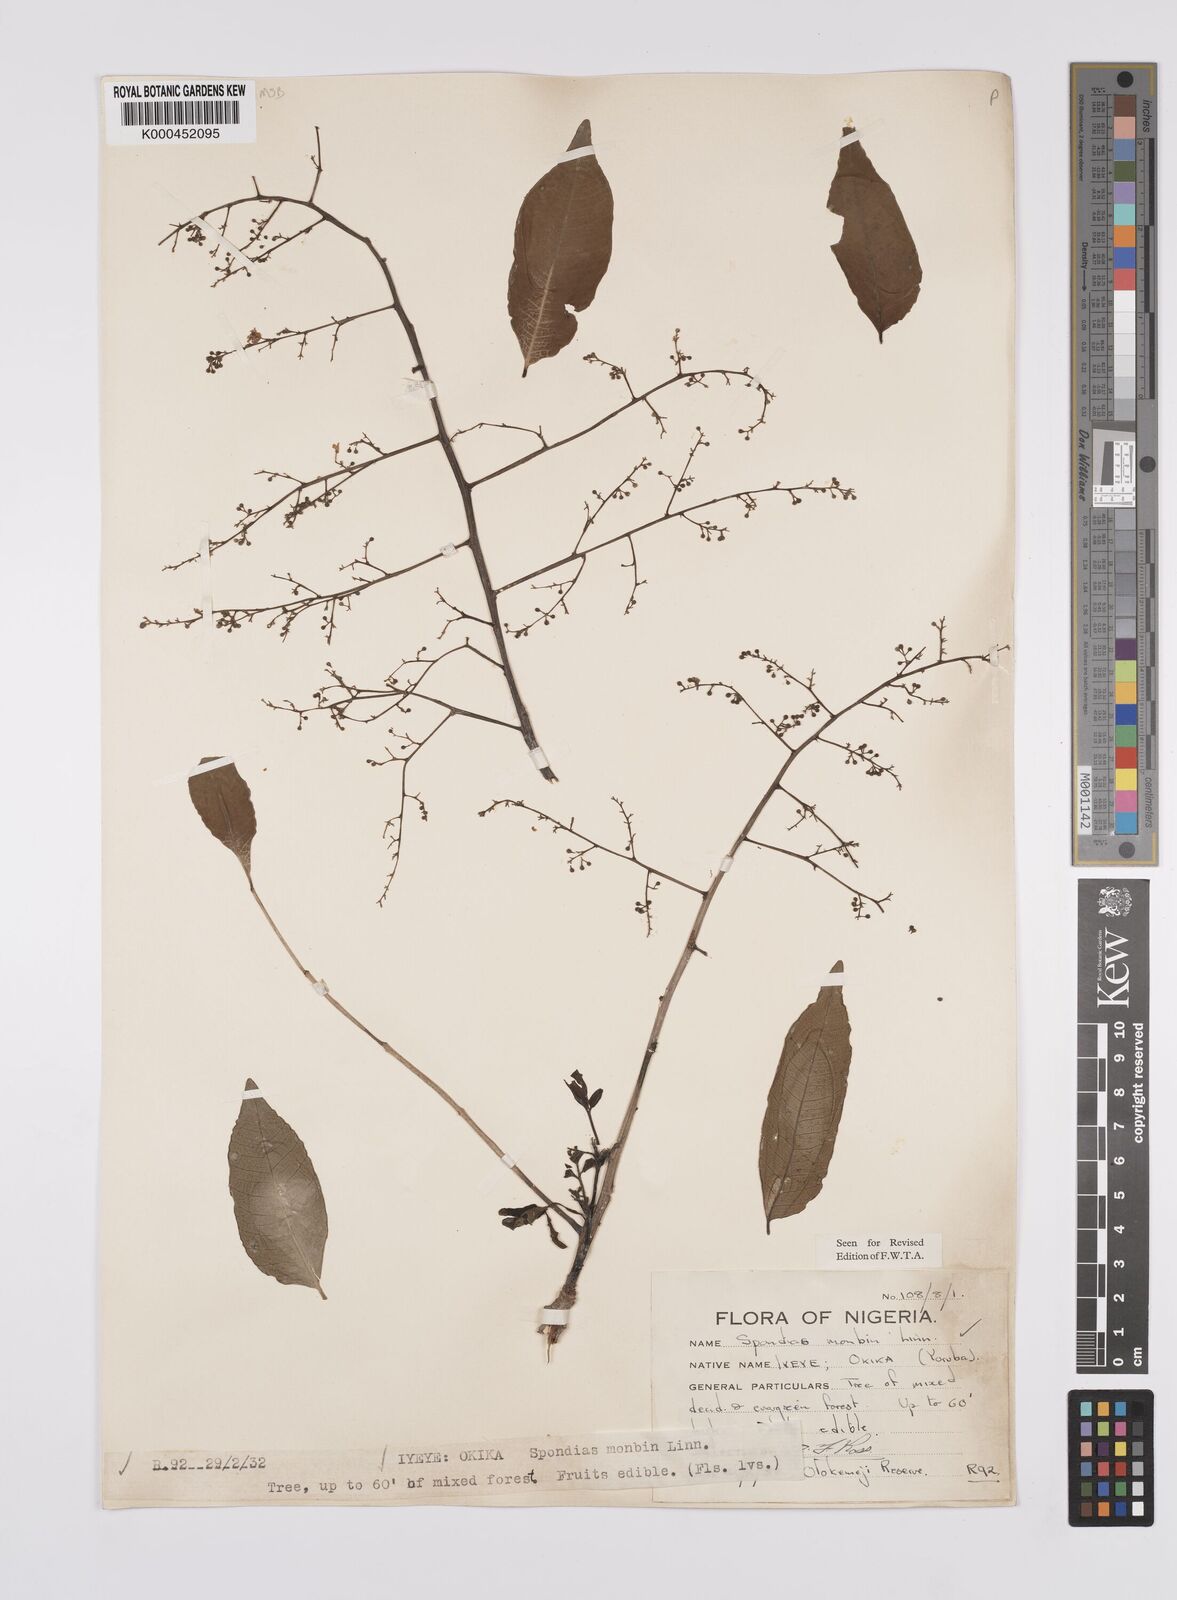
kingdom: Plantae
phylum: Tracheophyta
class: Magnoliopsida
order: Sapindales
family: Anacardiaceae
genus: Spondias
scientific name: Spondias mombin
